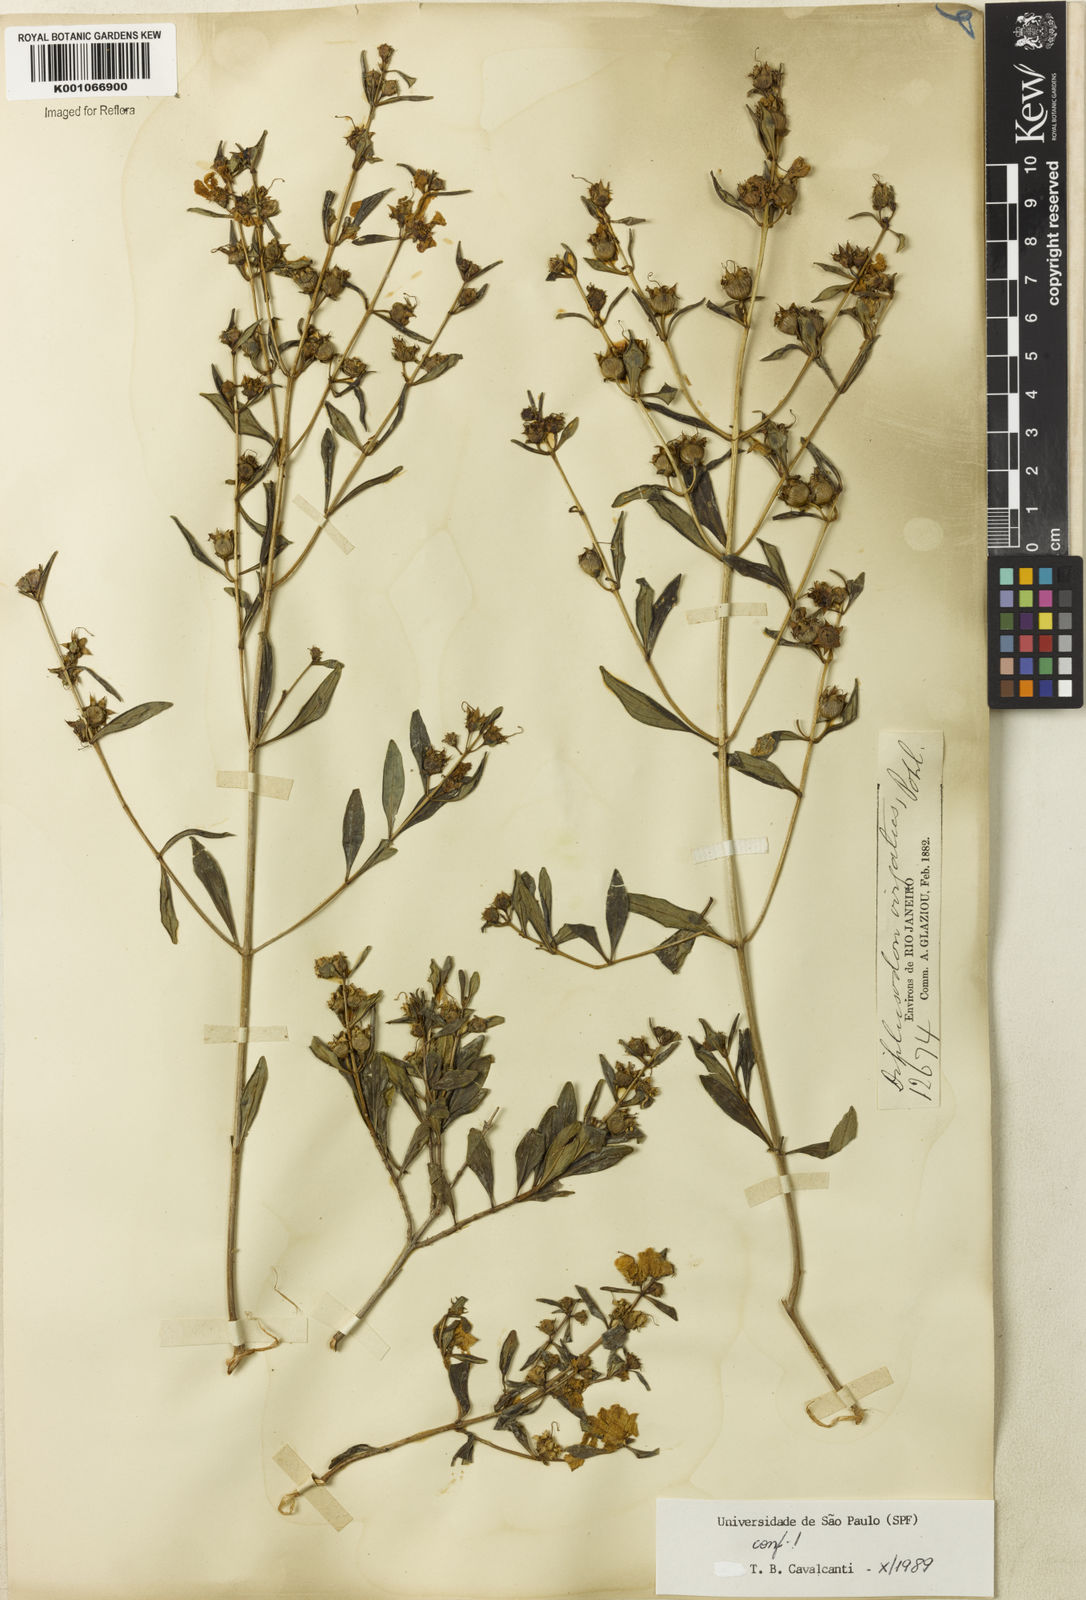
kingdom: Plantae
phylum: Tracheophyta
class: Magnoliopsida
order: Myrtales
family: Lythraceae
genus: Diplusodon
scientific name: Diplusodon virgatus
